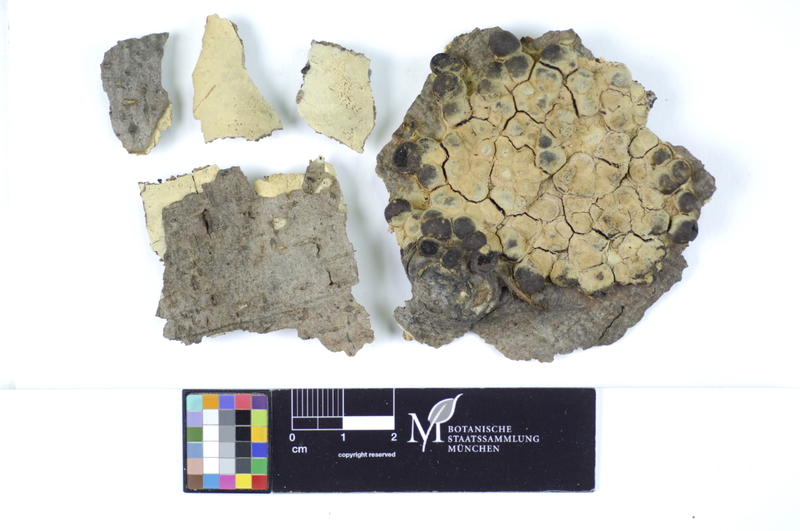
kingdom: Plantae
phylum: Tracheophyta
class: Magnoliopsida
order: Fagales
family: Fagaceae
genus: Fagus
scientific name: Fagus sylvatica
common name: Beech
